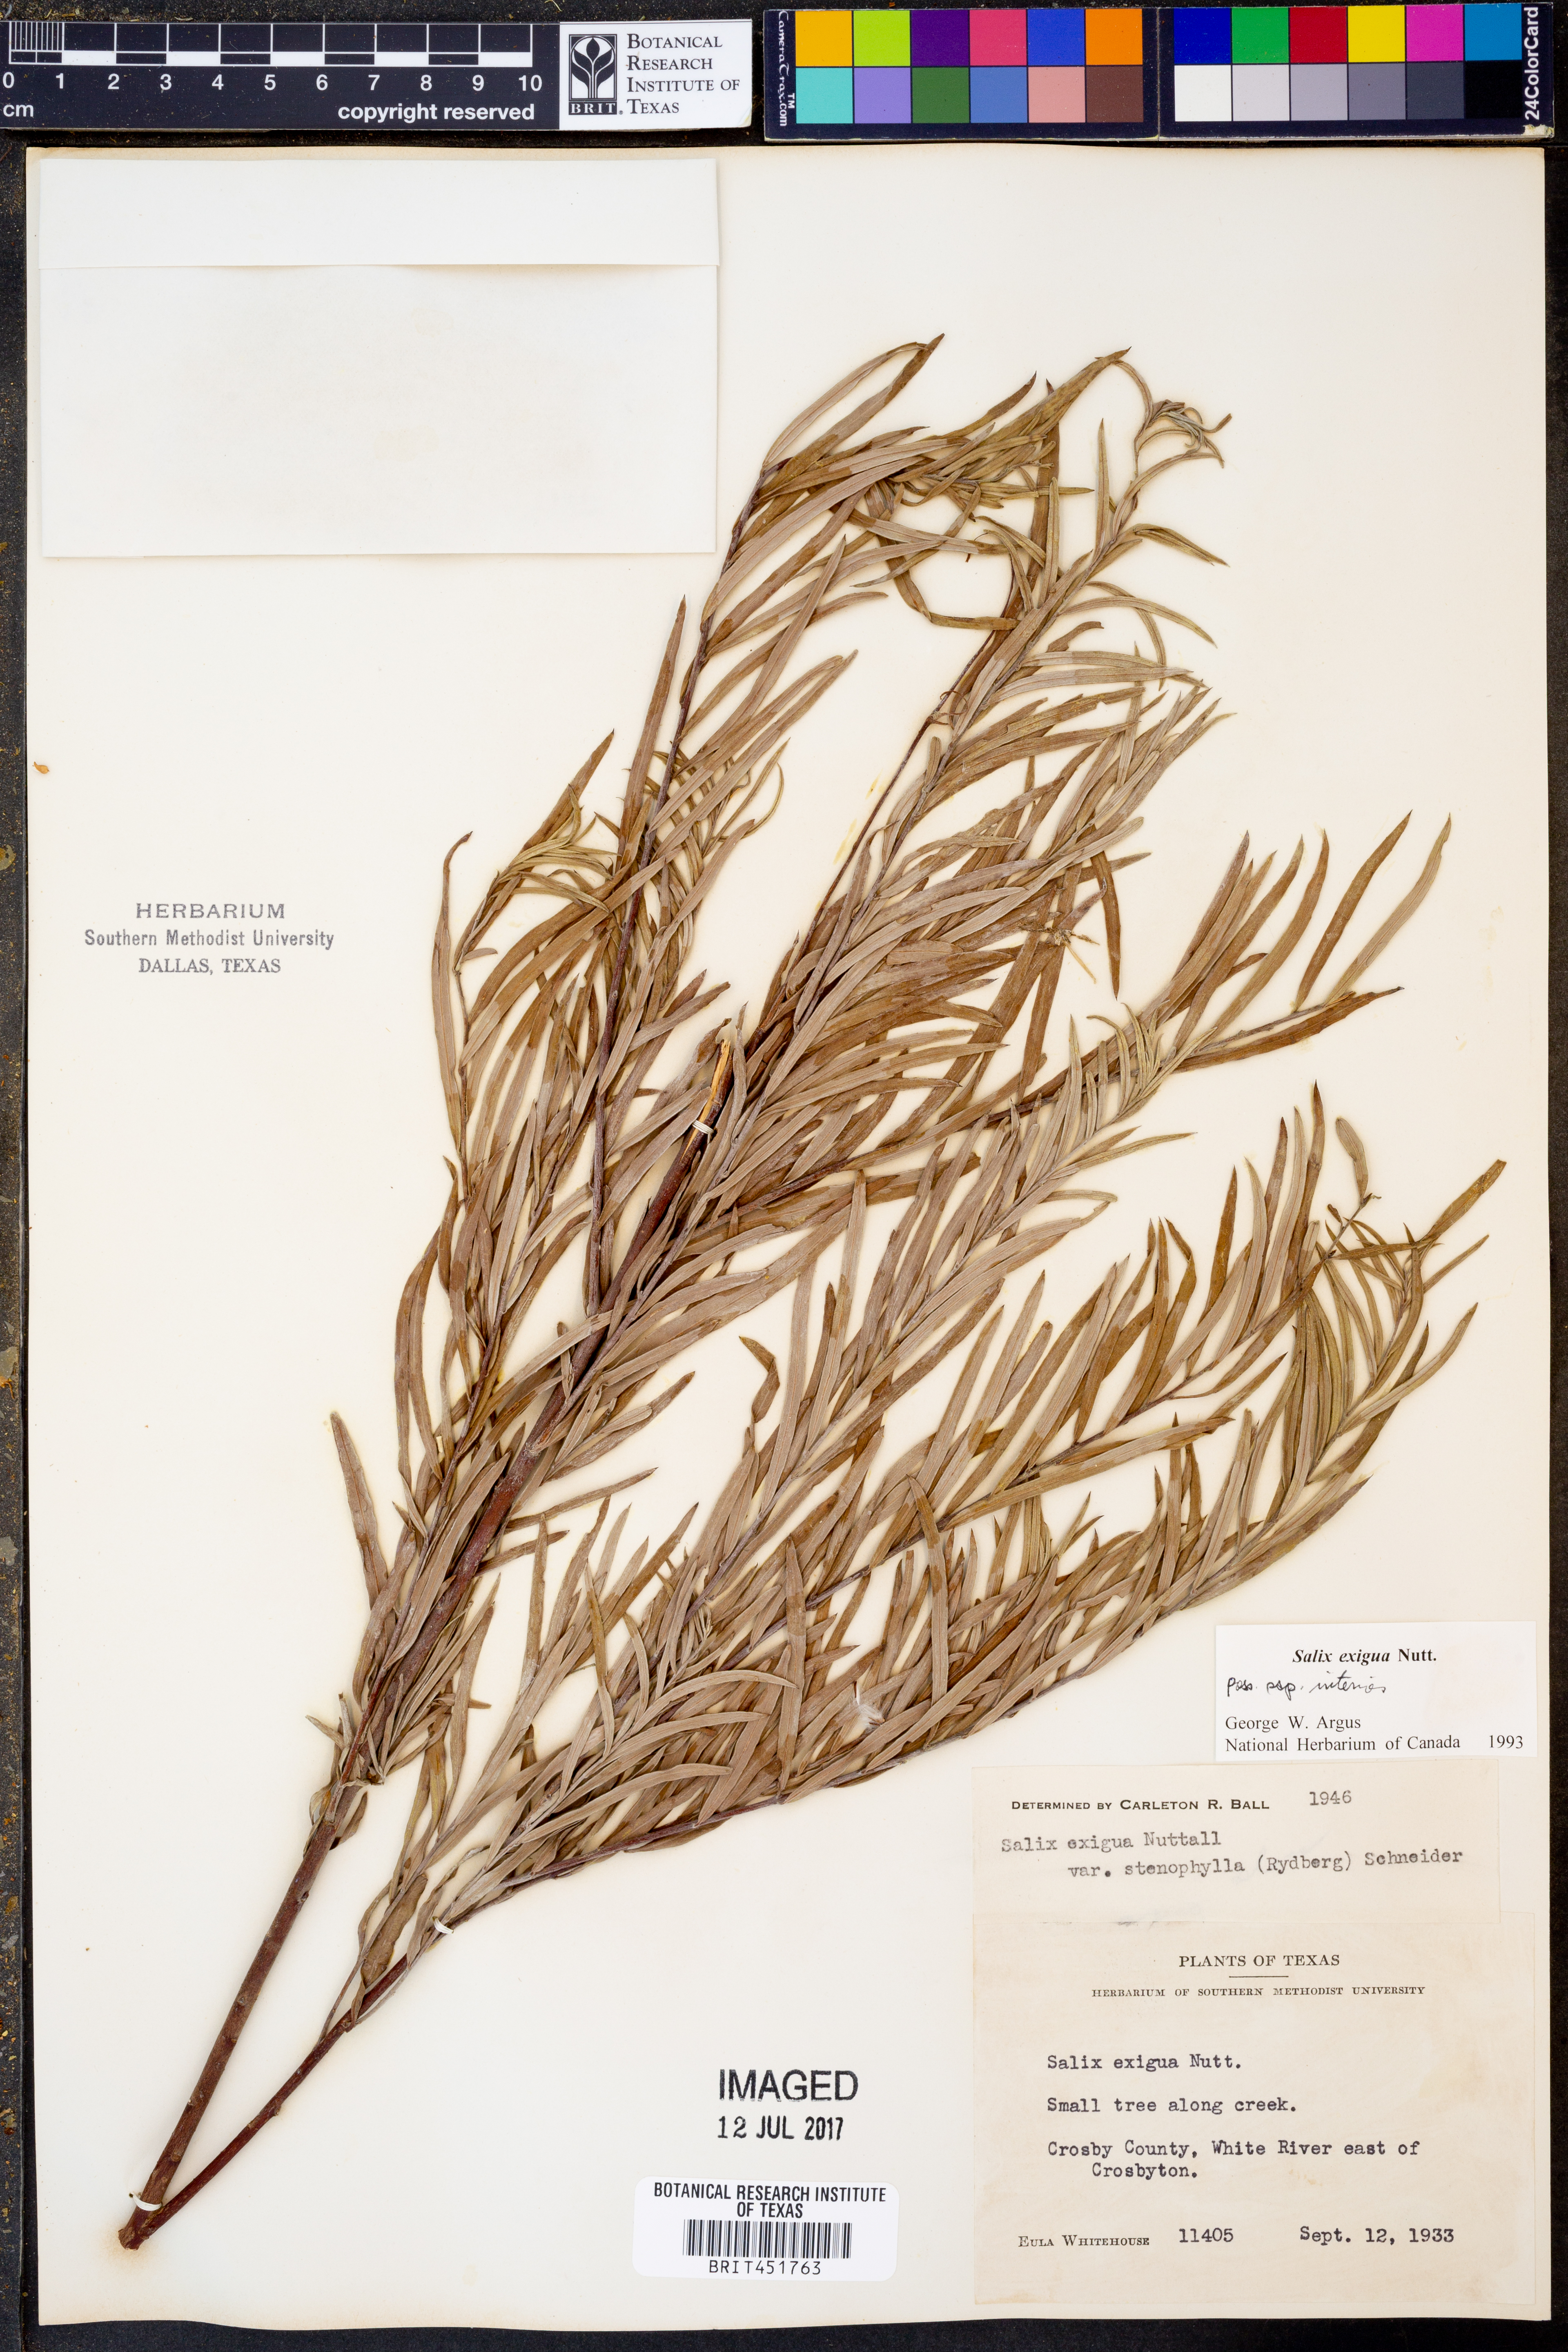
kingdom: Plantae
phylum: Tracheophyta
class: Magnoliopsida
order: Malpighiales
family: Salicaceae
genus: Salix
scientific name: Salix exigua
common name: Coyote willow
